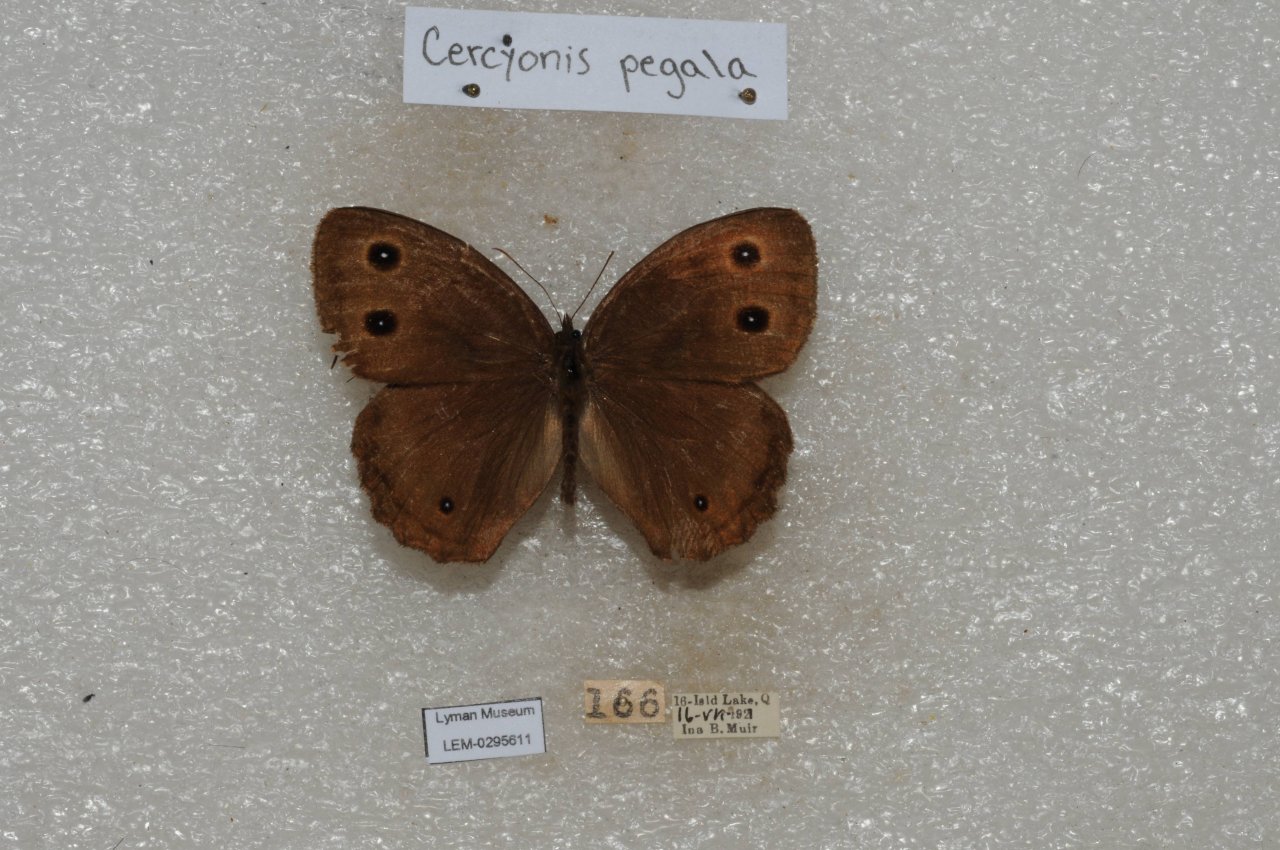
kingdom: Animalia
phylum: Arthropoda
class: Insecta
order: Lepidoptera
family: Nymphalidae
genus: Cercyonis
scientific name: Cercyonis pegala
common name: Common Wood-Nymph
